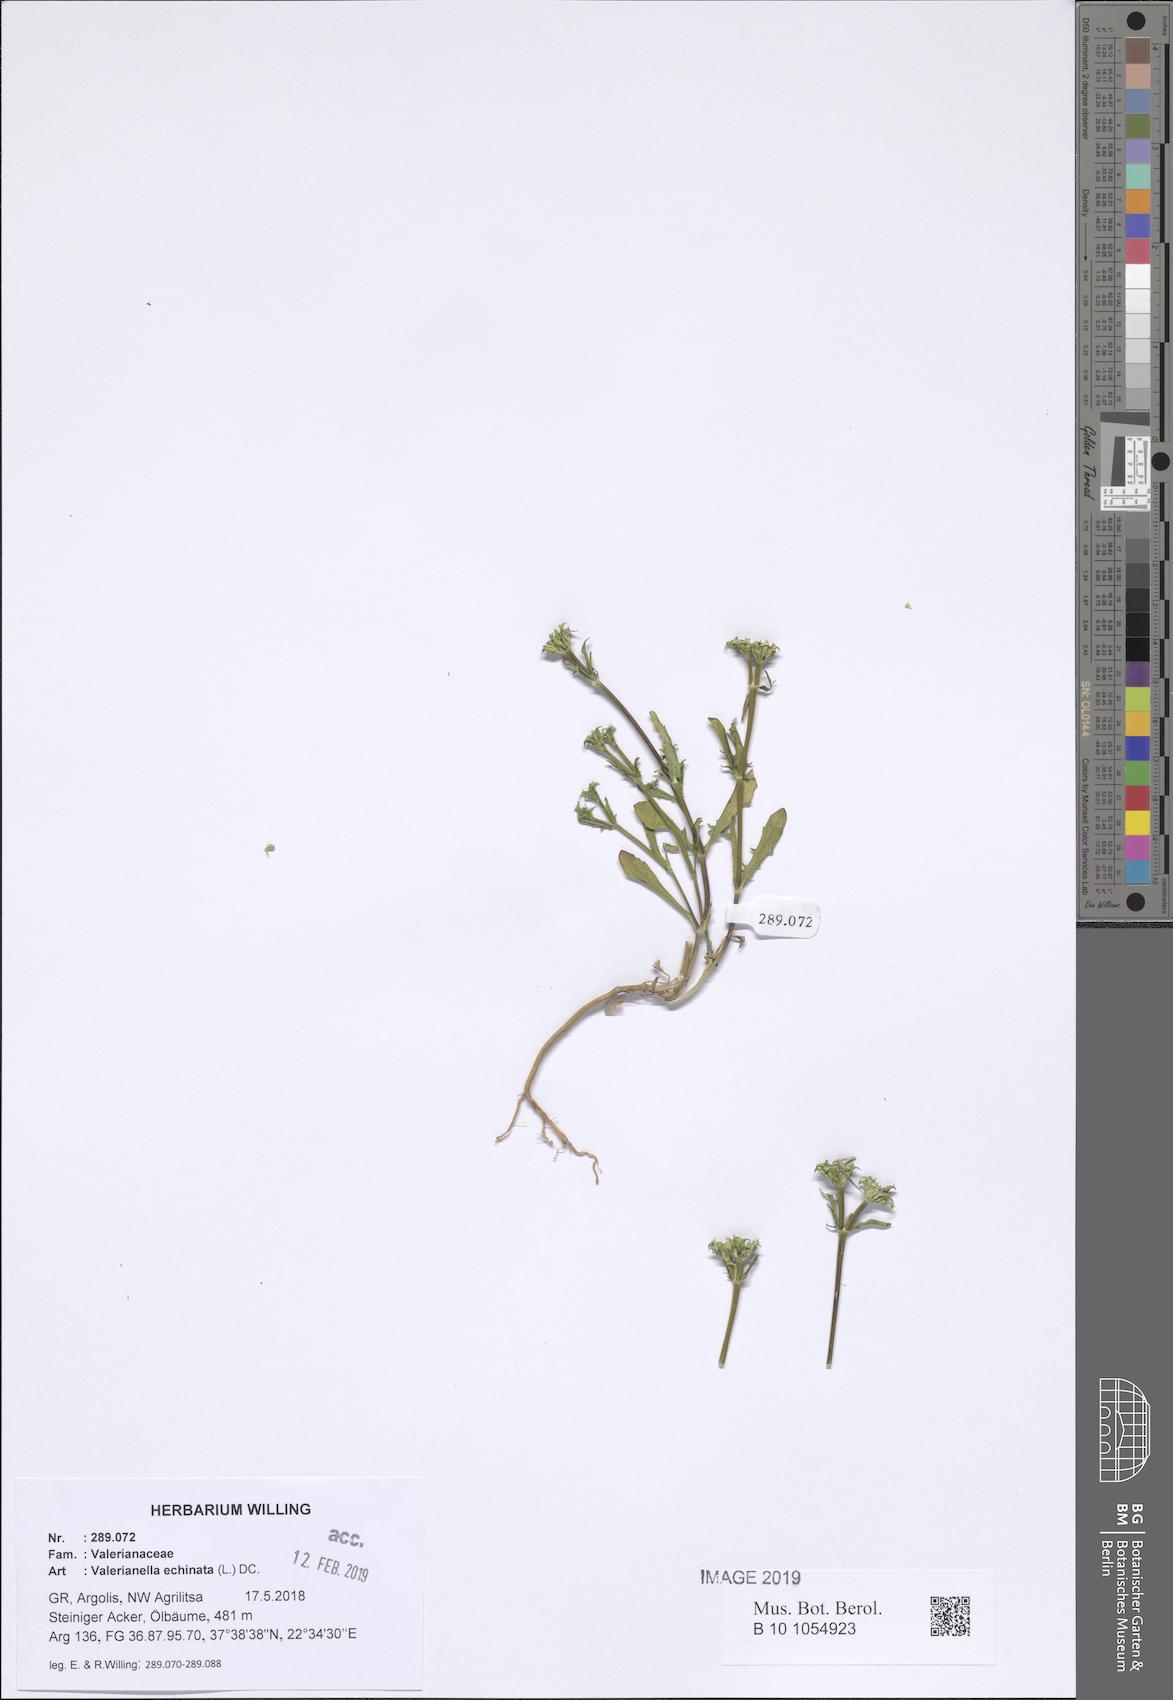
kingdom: Plantae
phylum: Tracheophyta
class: Magnoliopsida
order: Dipsacales
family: Caprifoliaceae
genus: Valerianella
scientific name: Valerianella echinata
